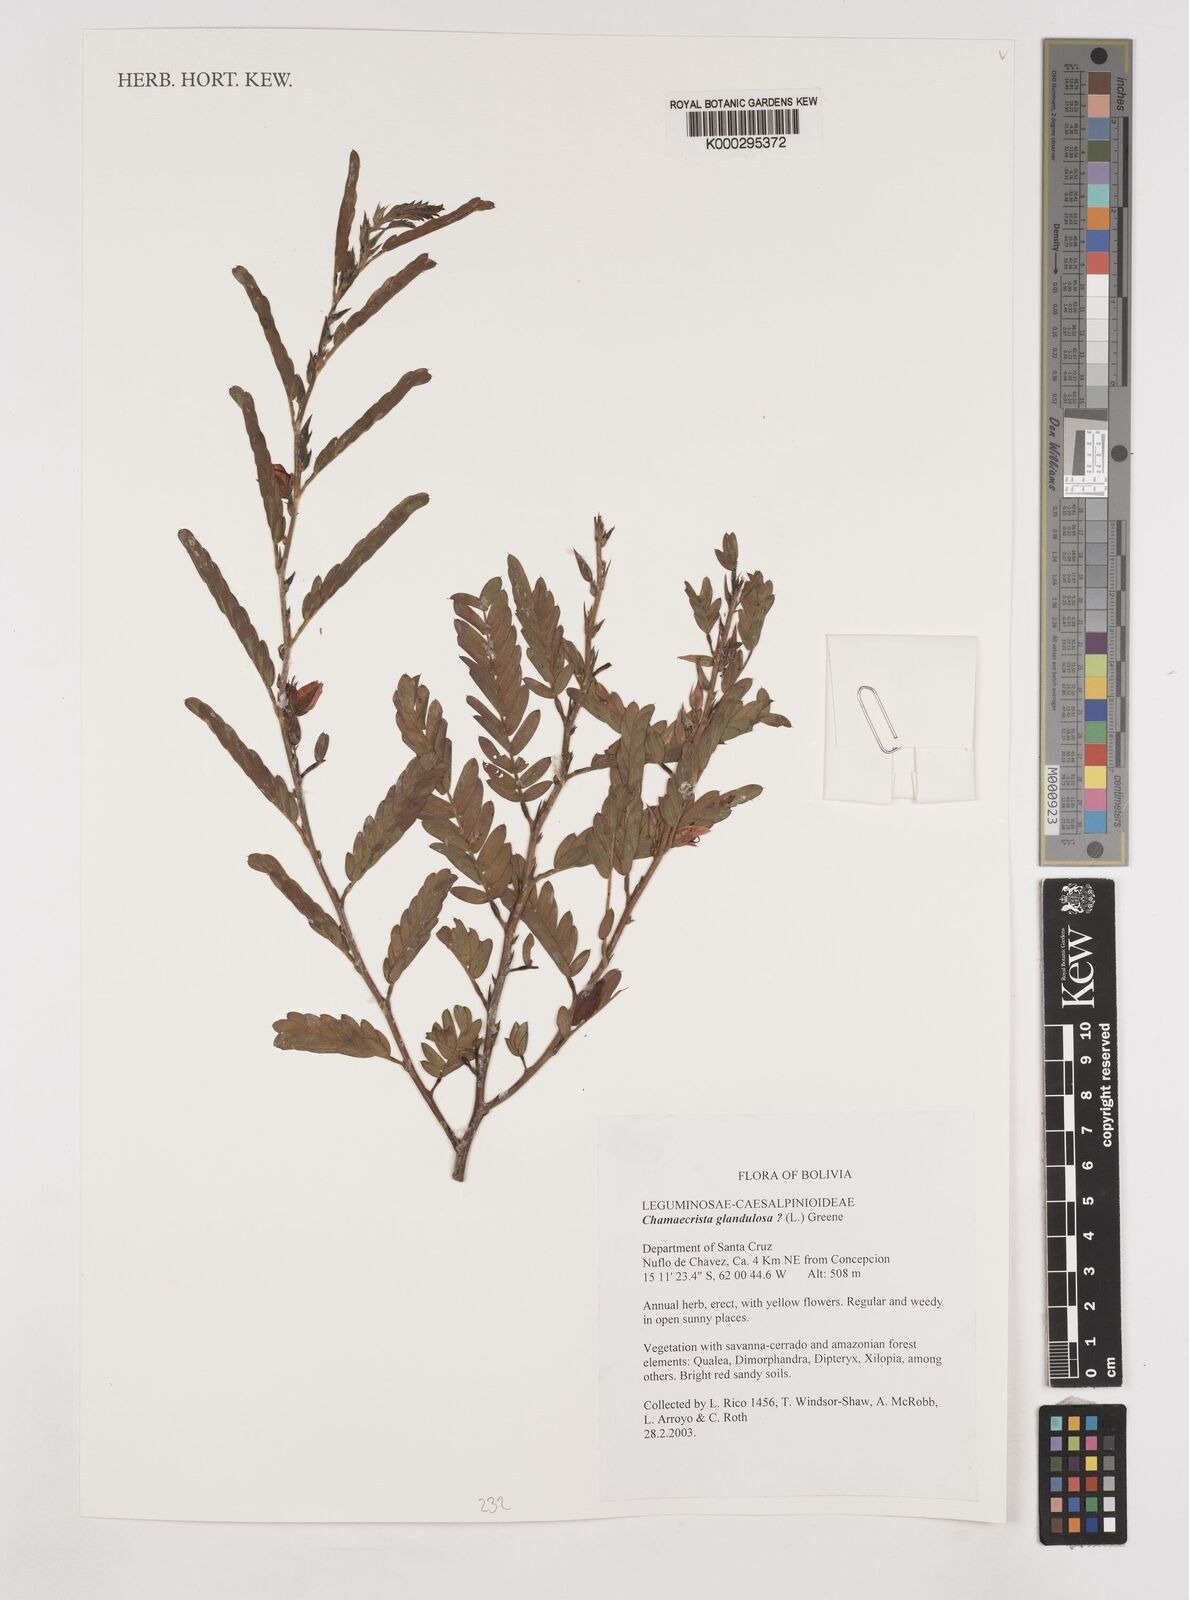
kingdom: Plantae
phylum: Tracheophyta
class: Magnoliopsida
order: Fabales
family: Fabaceae
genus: Chamaecrista
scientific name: Chamaecrista glandulosa
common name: Wild peas
